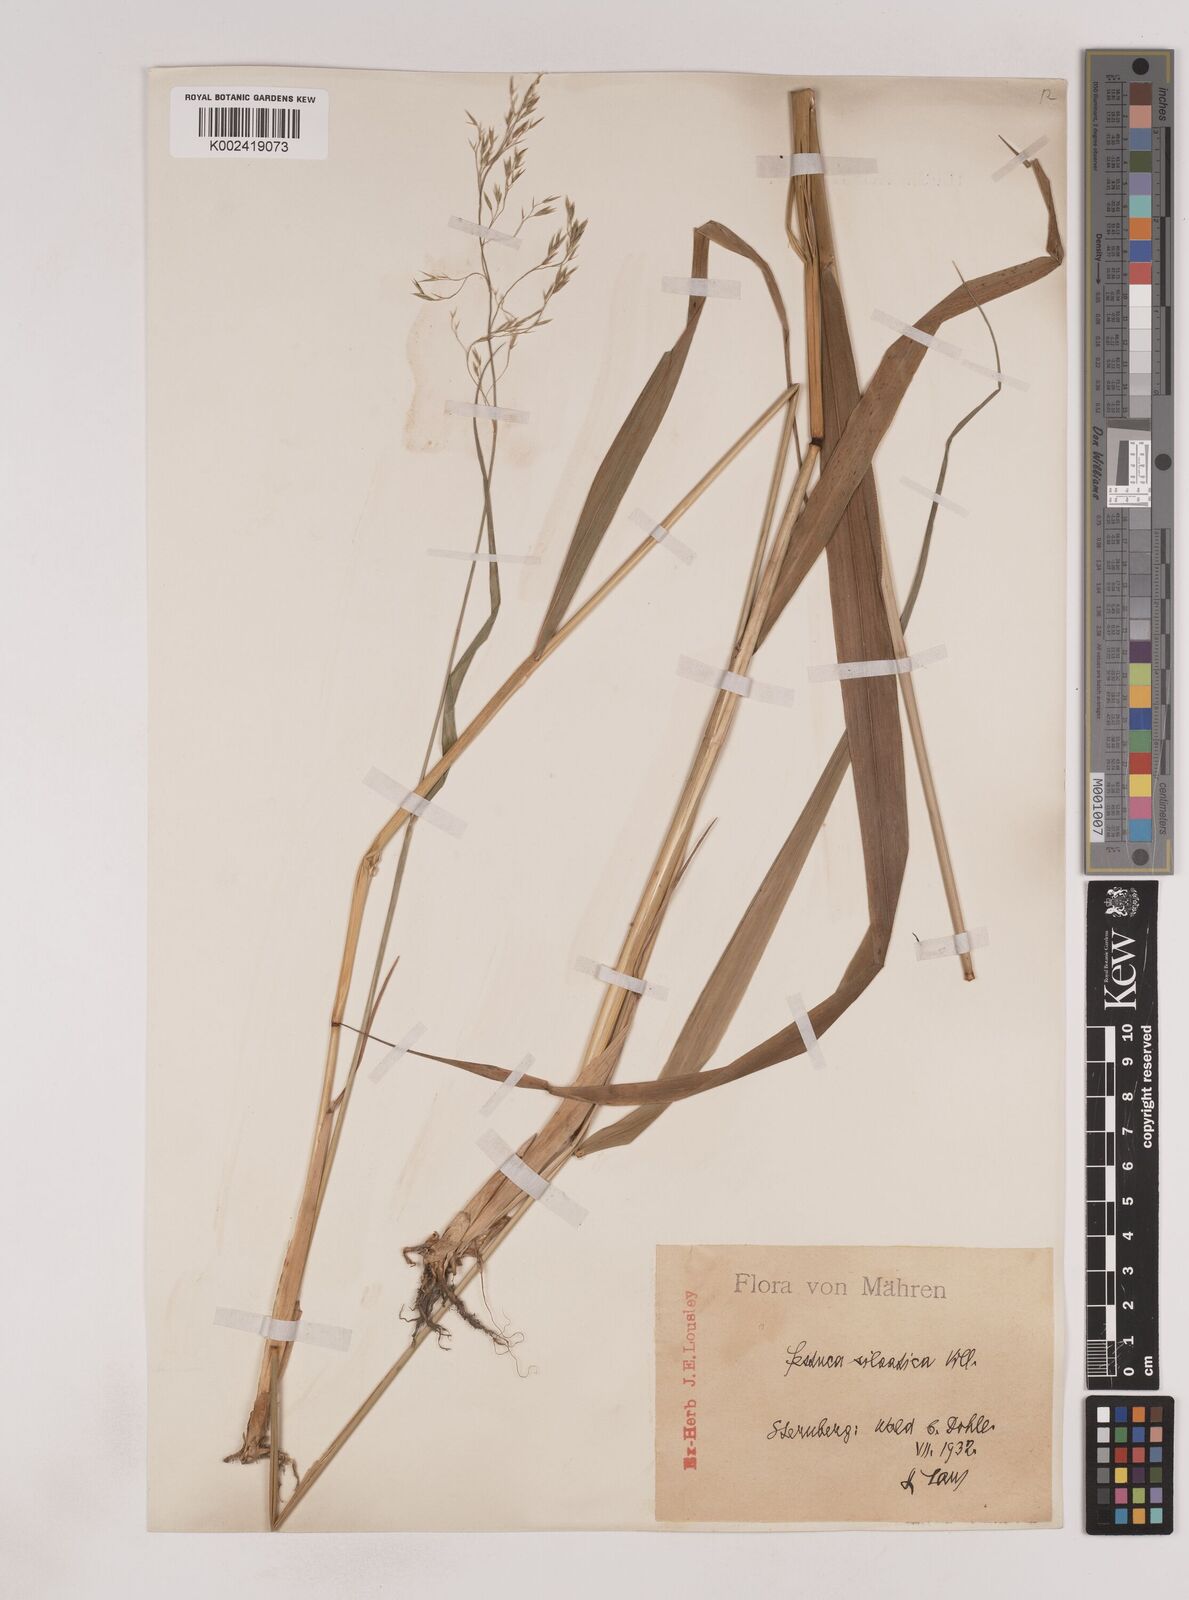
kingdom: Plantae
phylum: Tracheophyta
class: Liliopsida
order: Poales
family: Poaceae
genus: Festuca
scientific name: Festuca drymeja
